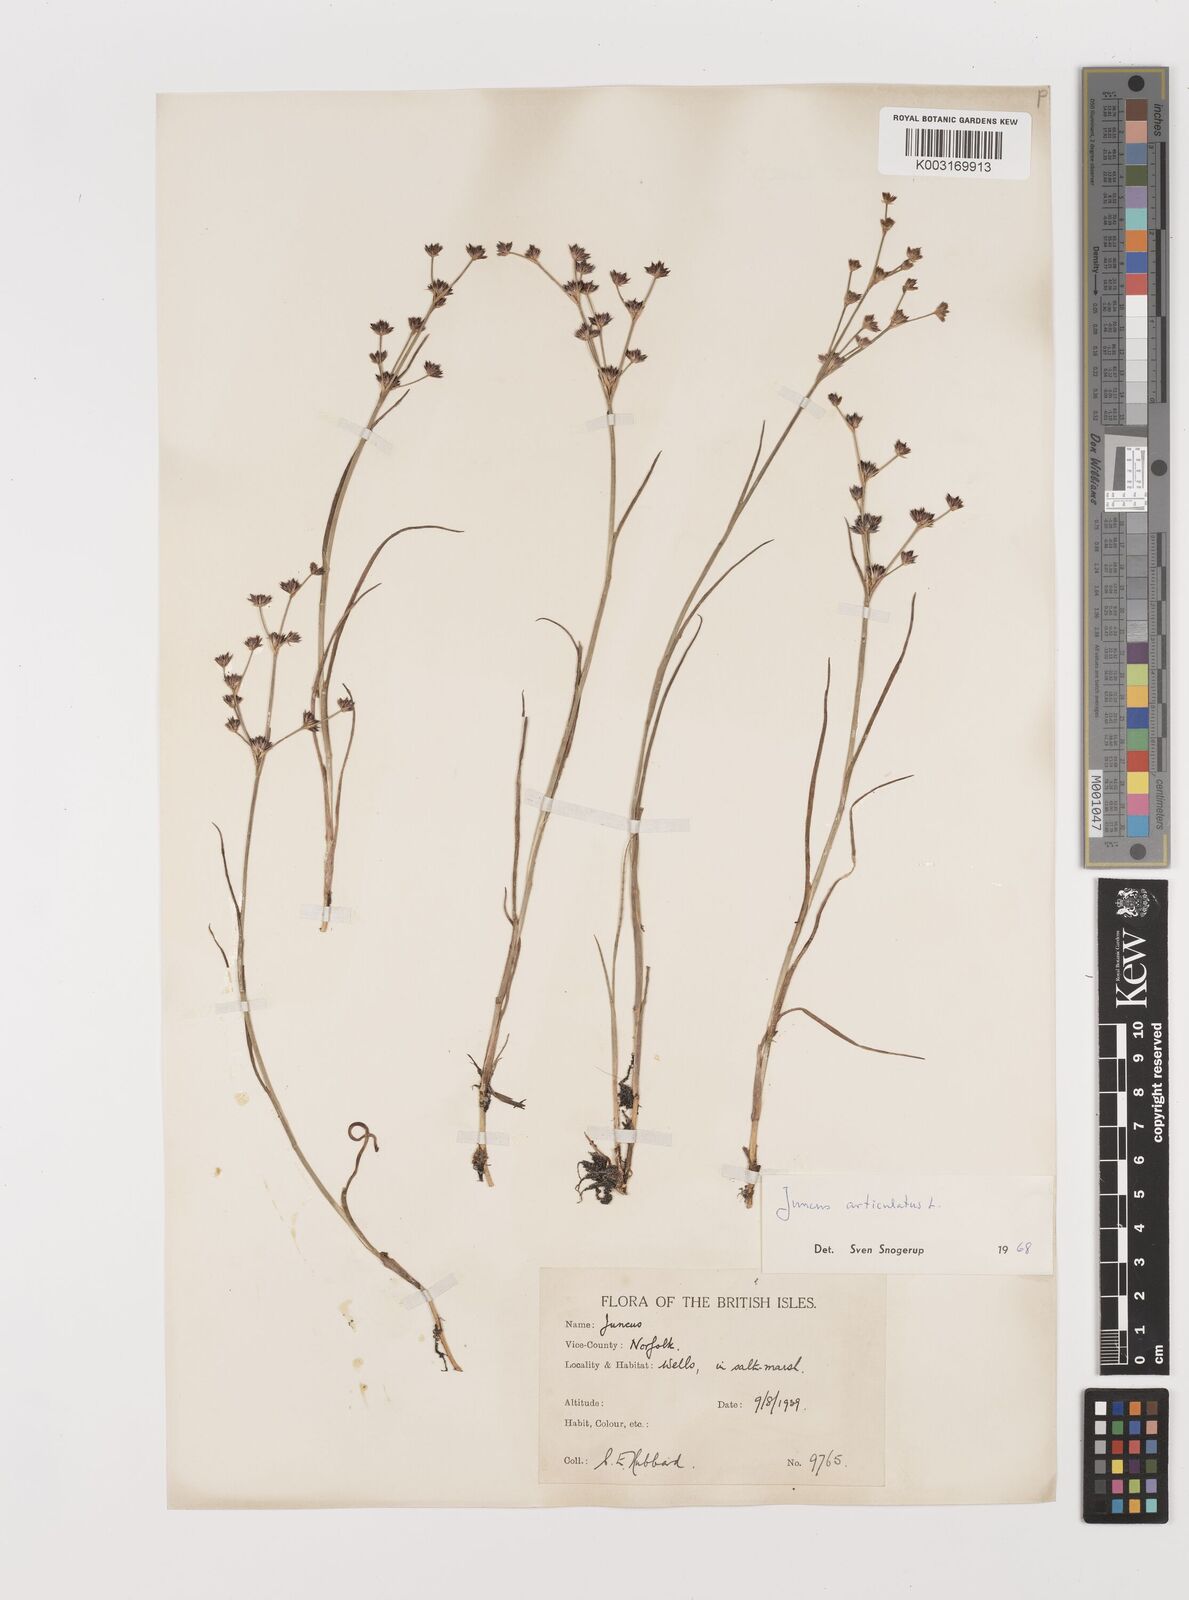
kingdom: Plantae
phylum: Tracheophyta
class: Liliopsida
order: Poales
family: Juncaceae
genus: Juncus
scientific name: Juncus articulatus
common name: Jointed rush
